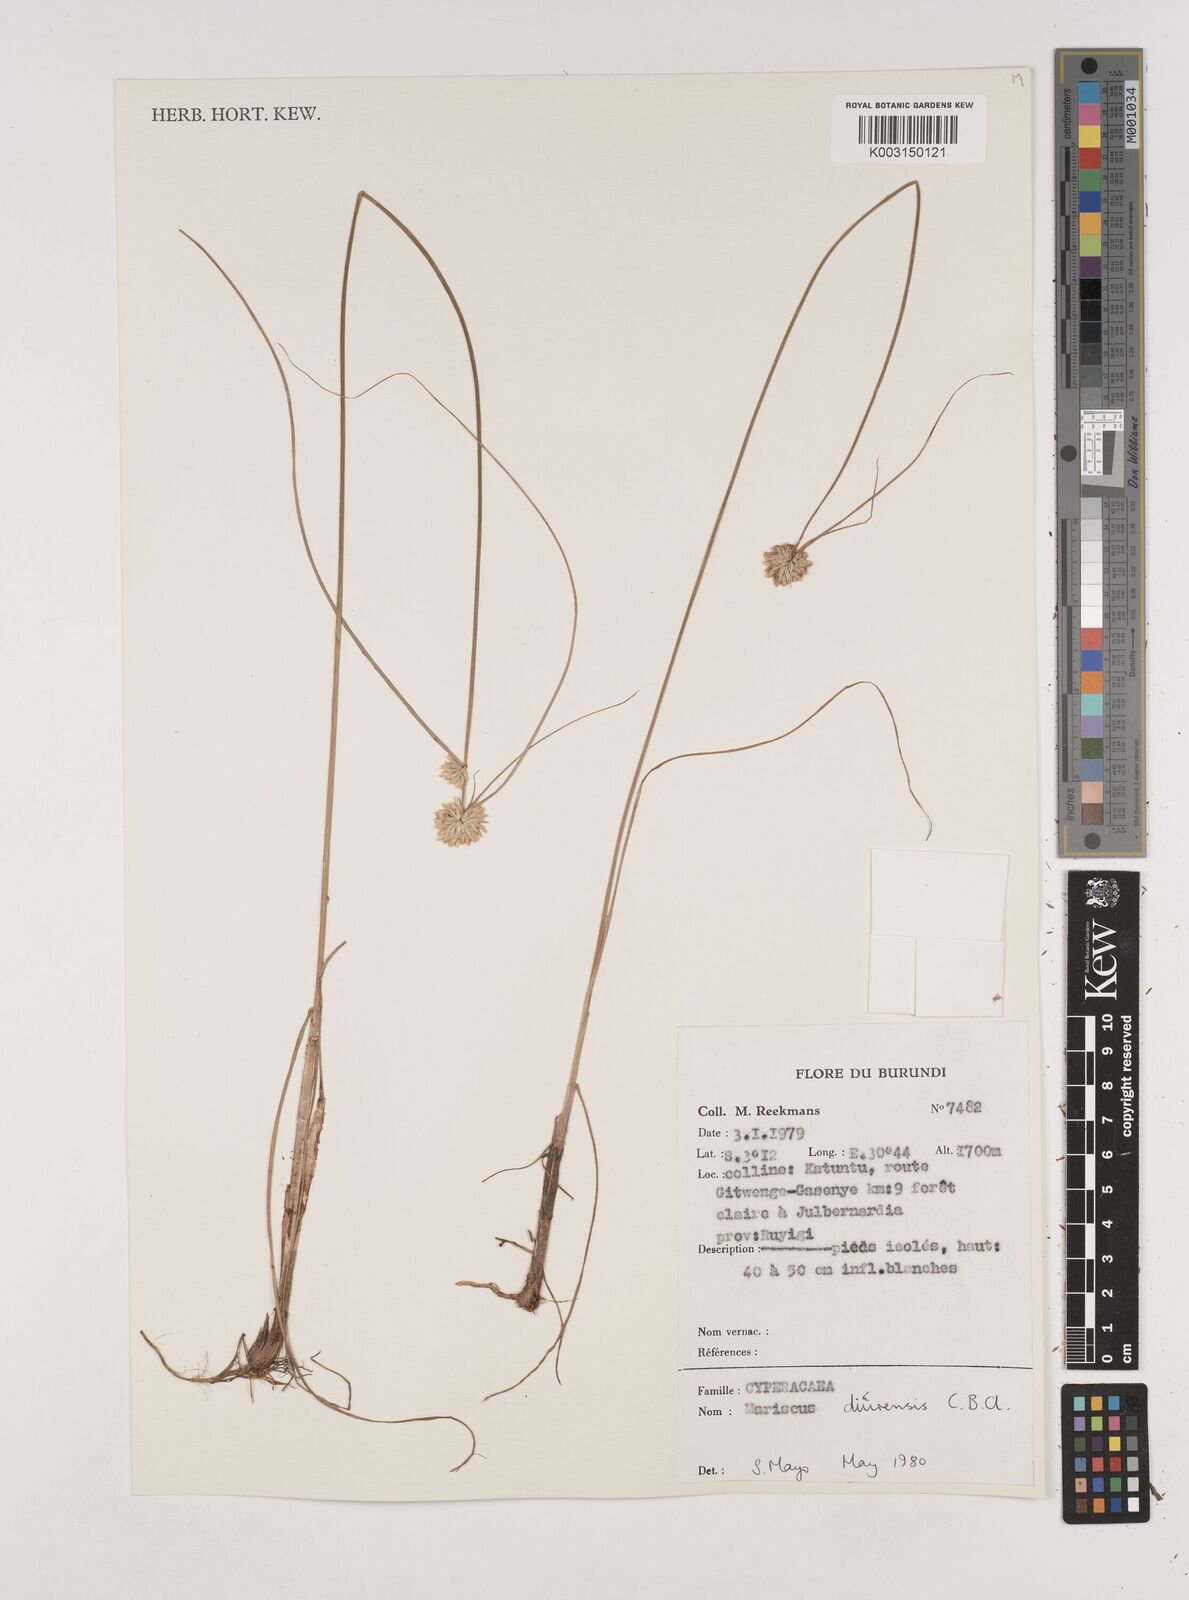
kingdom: Plantae
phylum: Tracheophyta
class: Liliopsida
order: Poales
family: Cyperaceae
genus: Cyperus
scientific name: Cyperus diurensis
